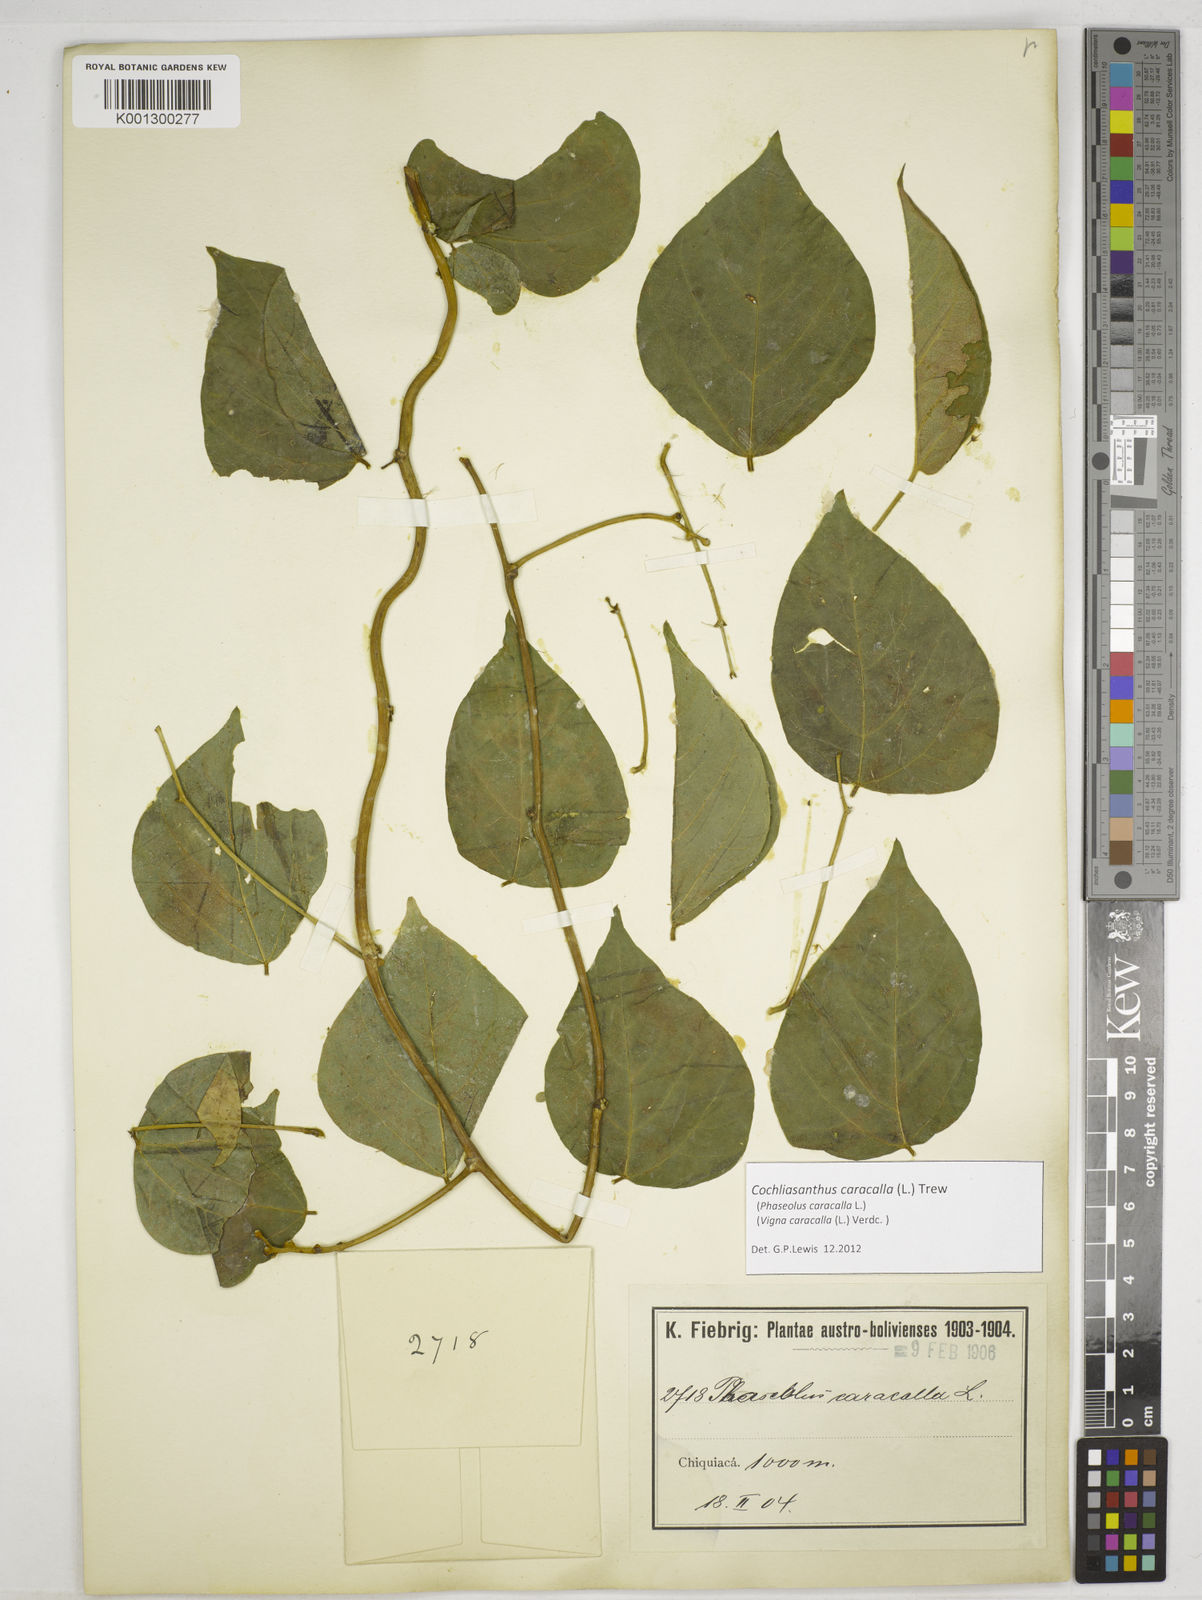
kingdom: Plantae
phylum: Tracheophyta
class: Magnoliopsida
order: Fabales
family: Fabaceae
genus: Cochliasanthus
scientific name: Cochliasanthus caracalla
